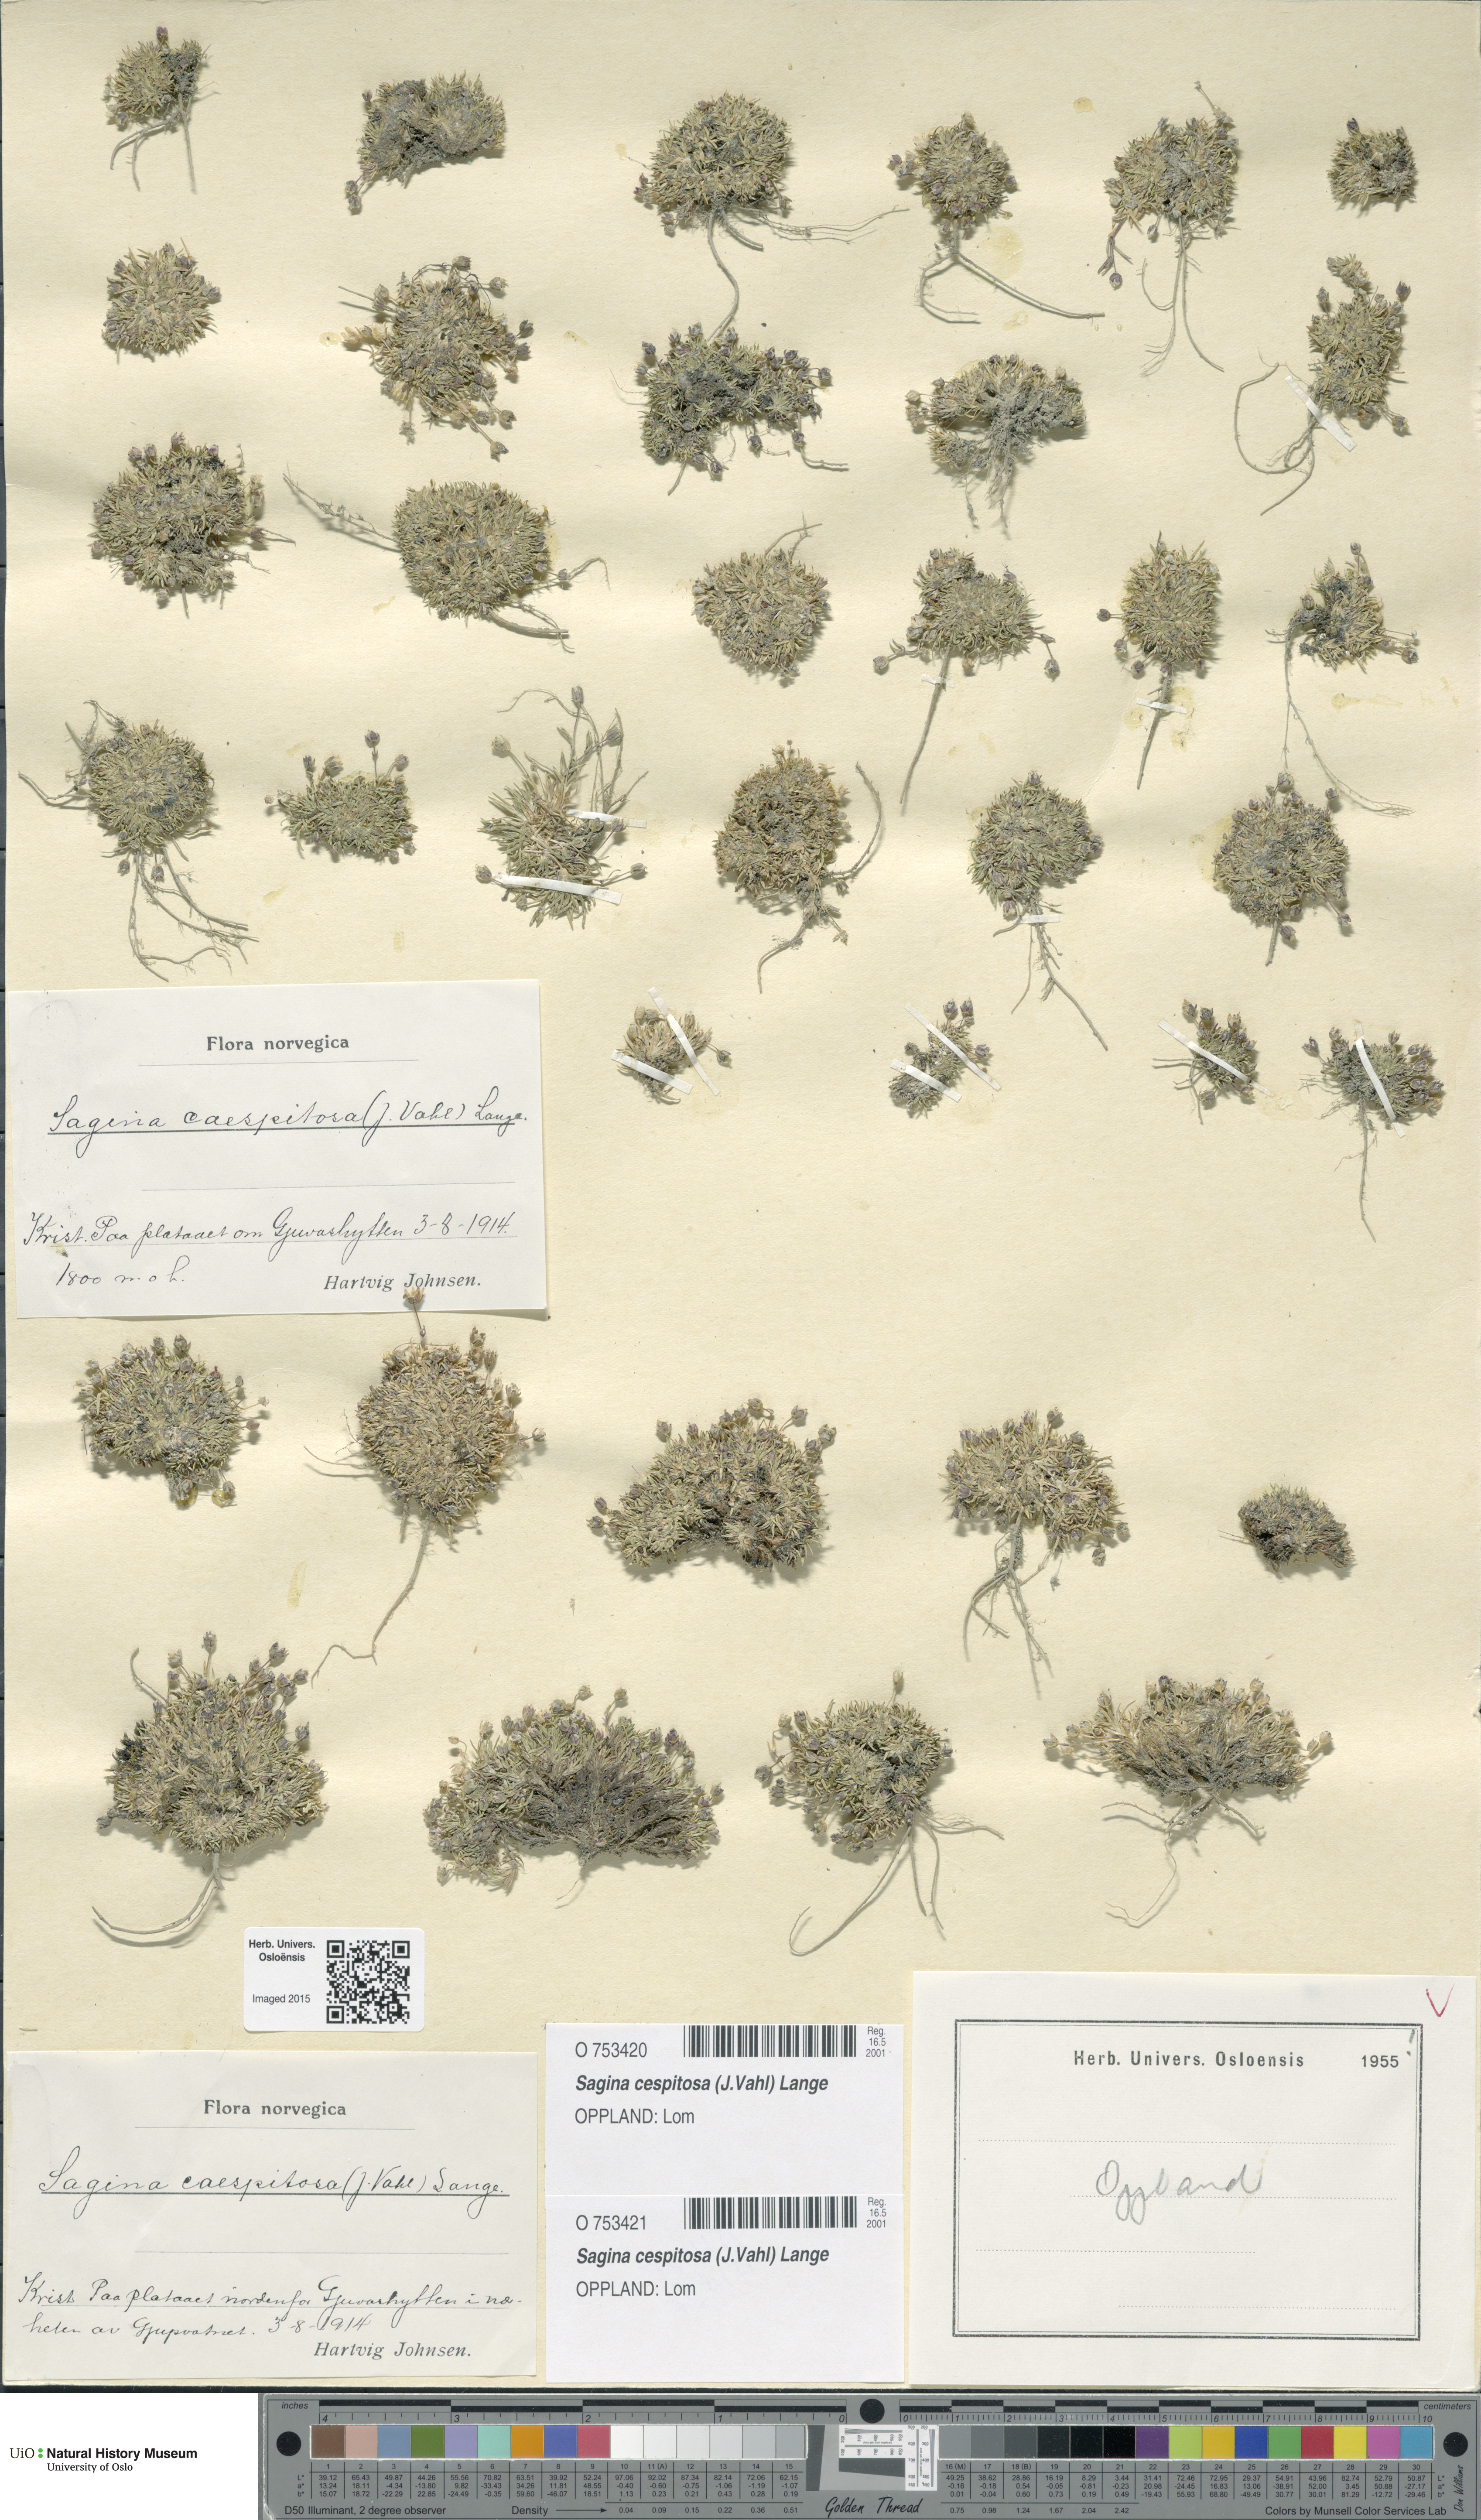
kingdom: Plantae
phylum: Tracheophyta
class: Magnoliopsida
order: Caryophyllales
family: Caryophyllaceae
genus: Sagina
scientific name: Sagina caespitosa
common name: Tufted pearlwort
